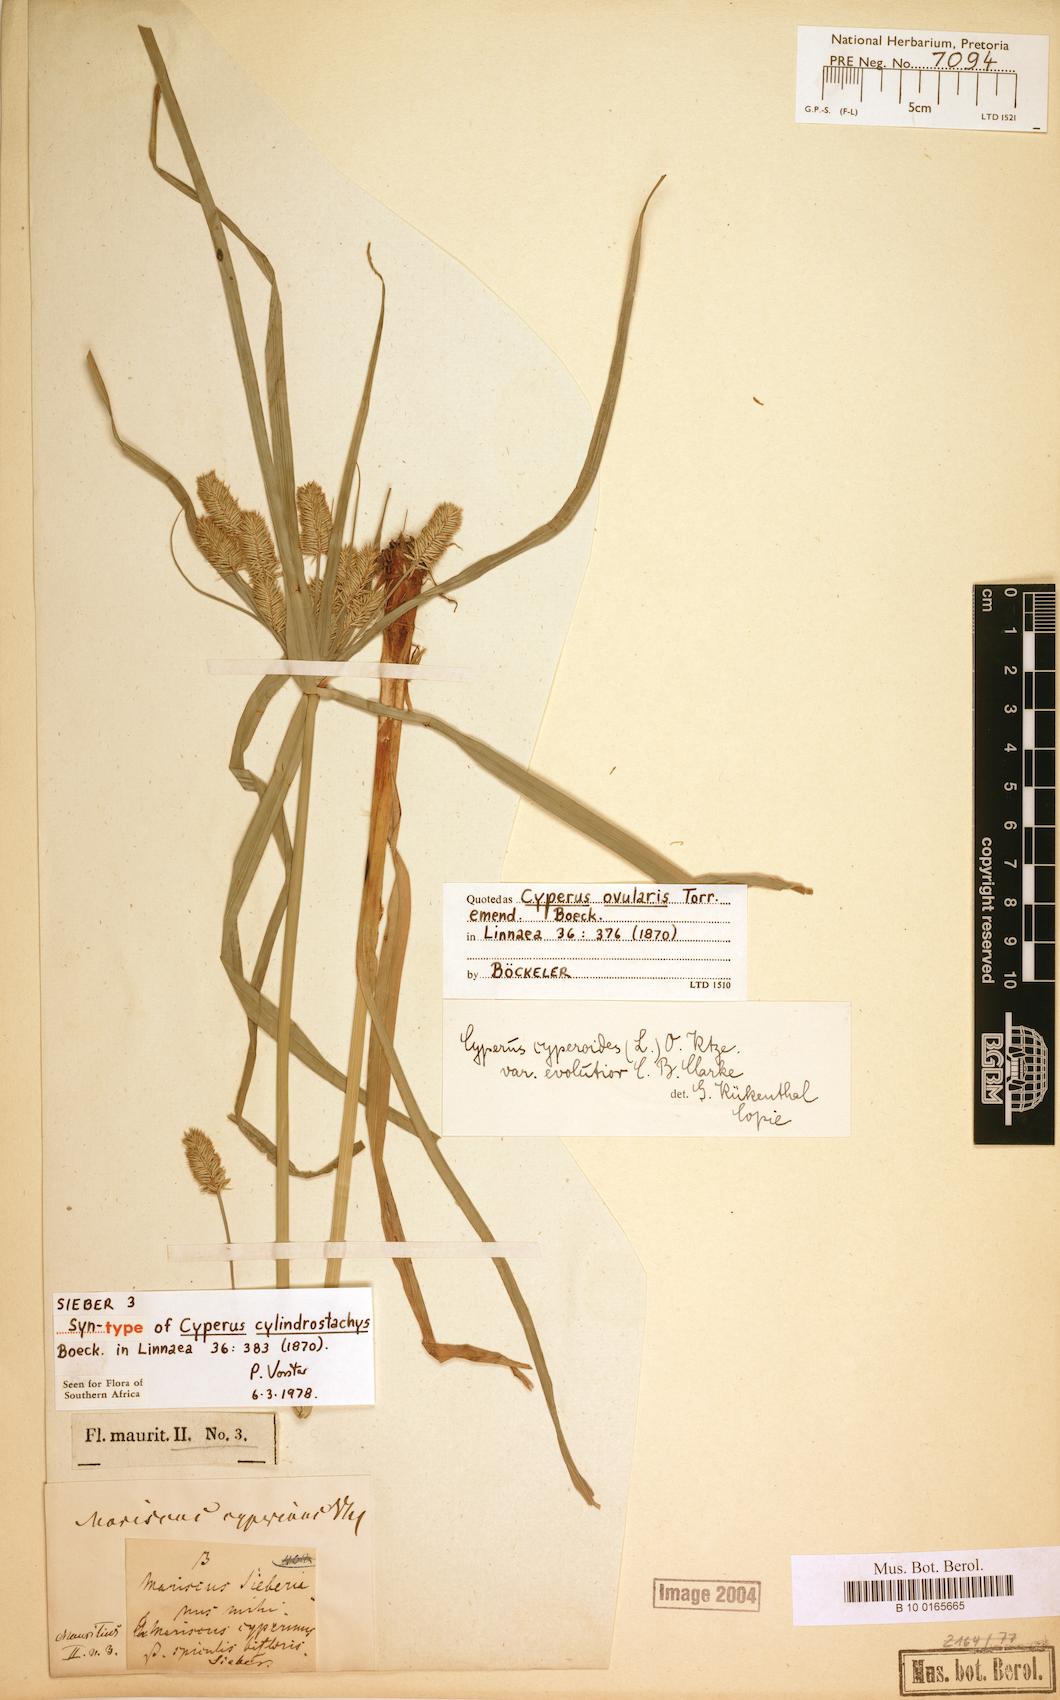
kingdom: Plantae
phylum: Tracheophyta
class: Liliopsida
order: Poales
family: Cyperaceae
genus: Cyperus
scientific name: Cyperus cyperoides
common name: Pacific island flat sedge
